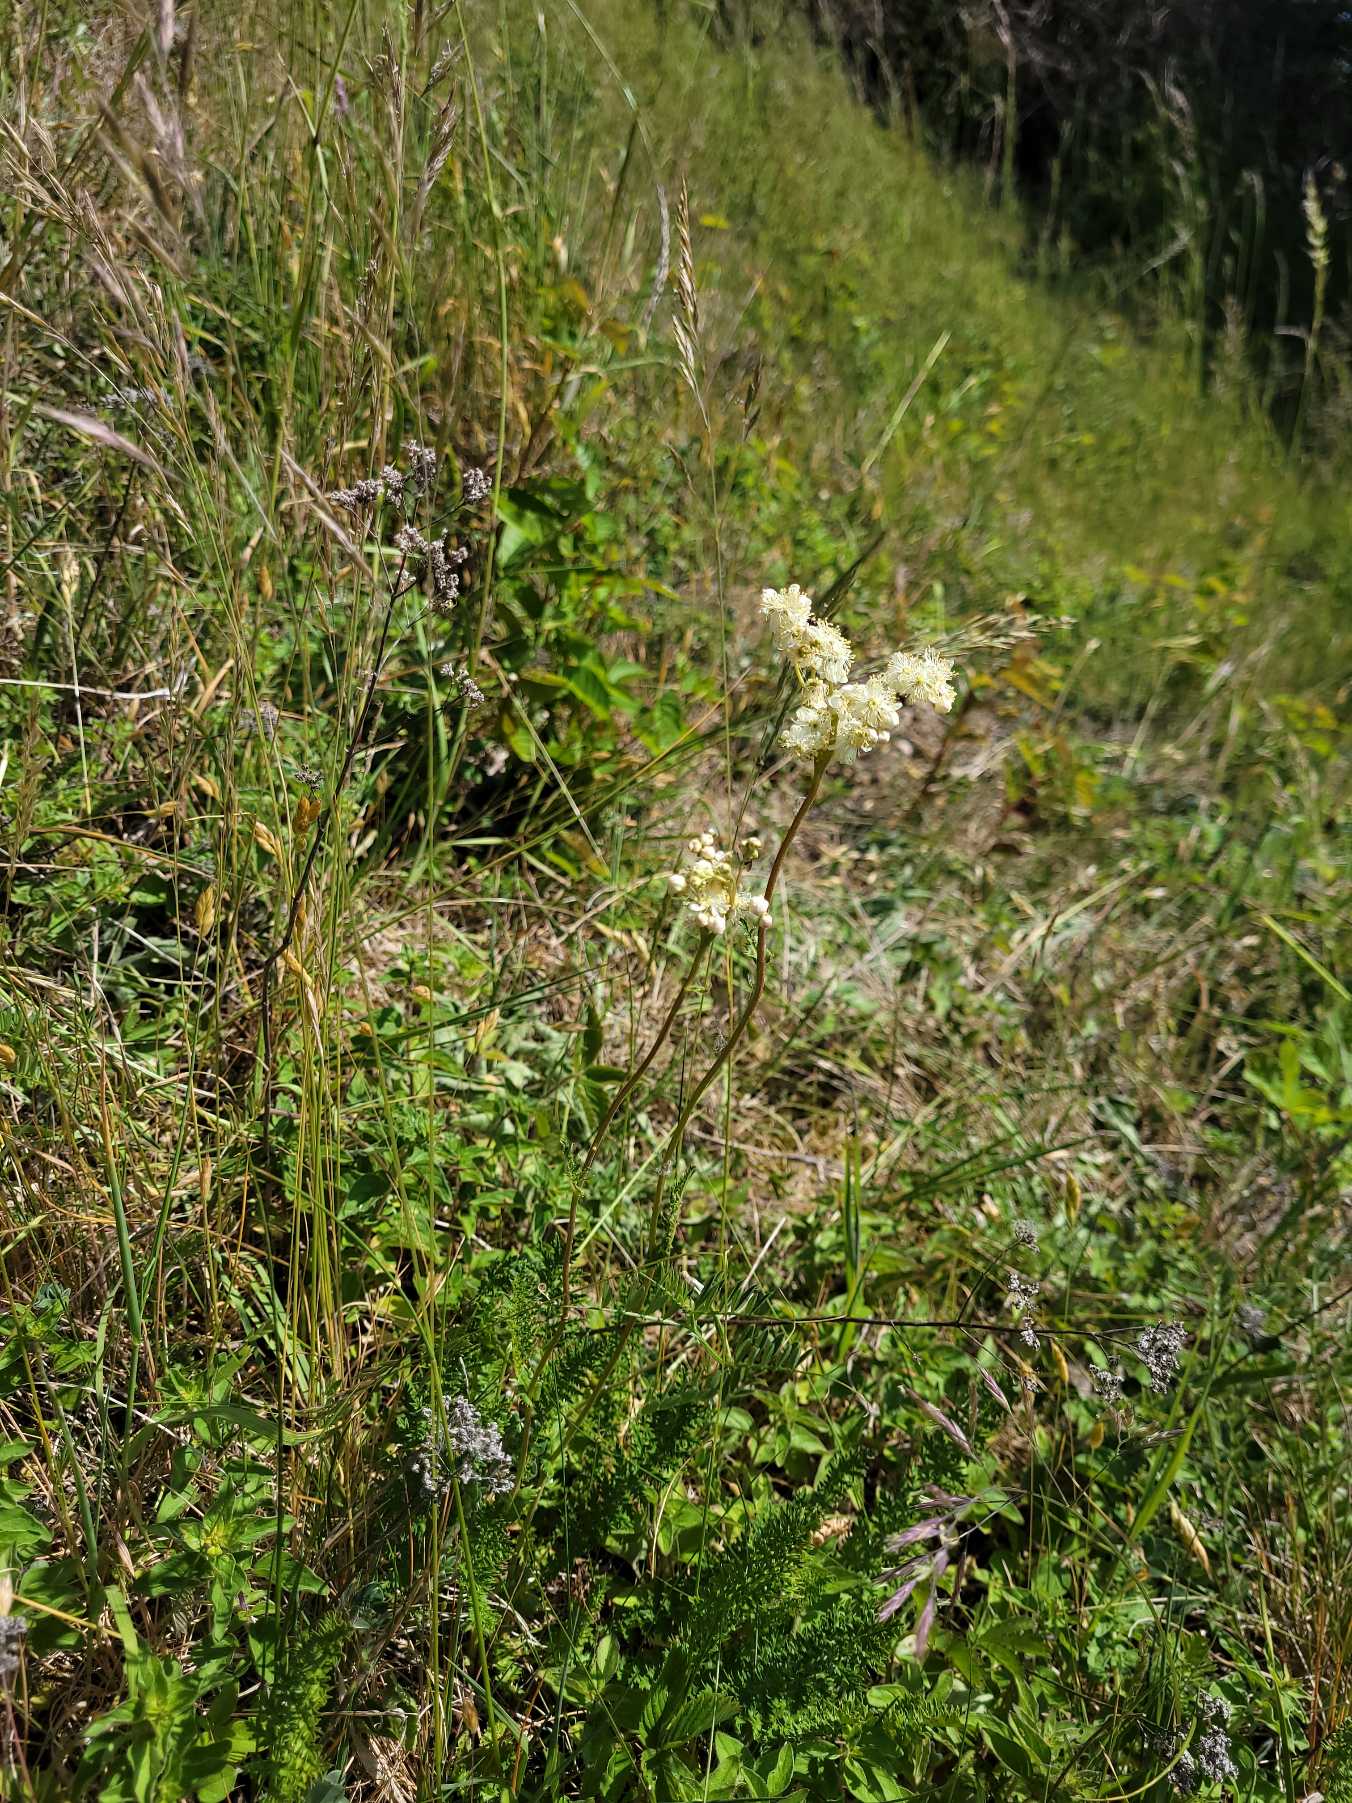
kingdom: Plantae
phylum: Tracheophyta
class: Magnoliopsida
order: Rosales
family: Rosaceae
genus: Filipendula
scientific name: Filipendula vulgaris
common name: Knoldet mjødurt
